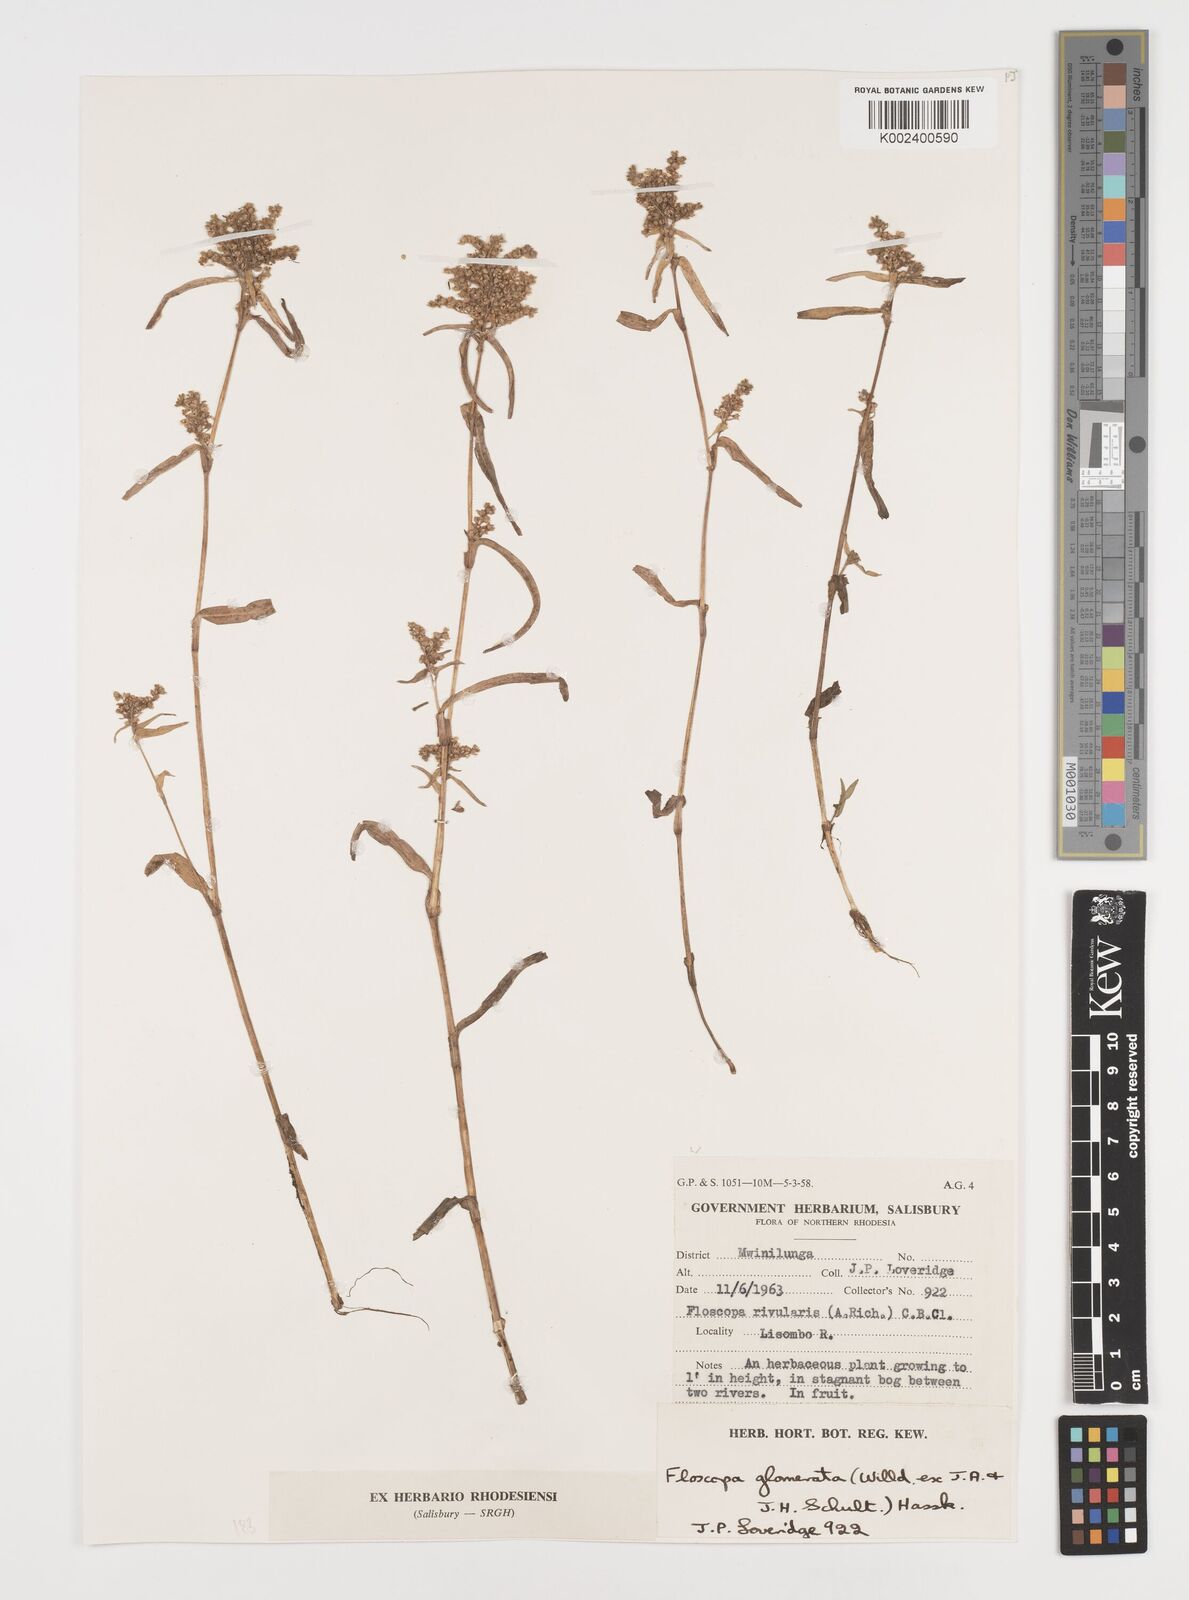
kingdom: Plantae
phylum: Tracheophyta
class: Liliopsida
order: Commelinales
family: Commelinaceae
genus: Floscopa
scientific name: Floscopa glomerata
